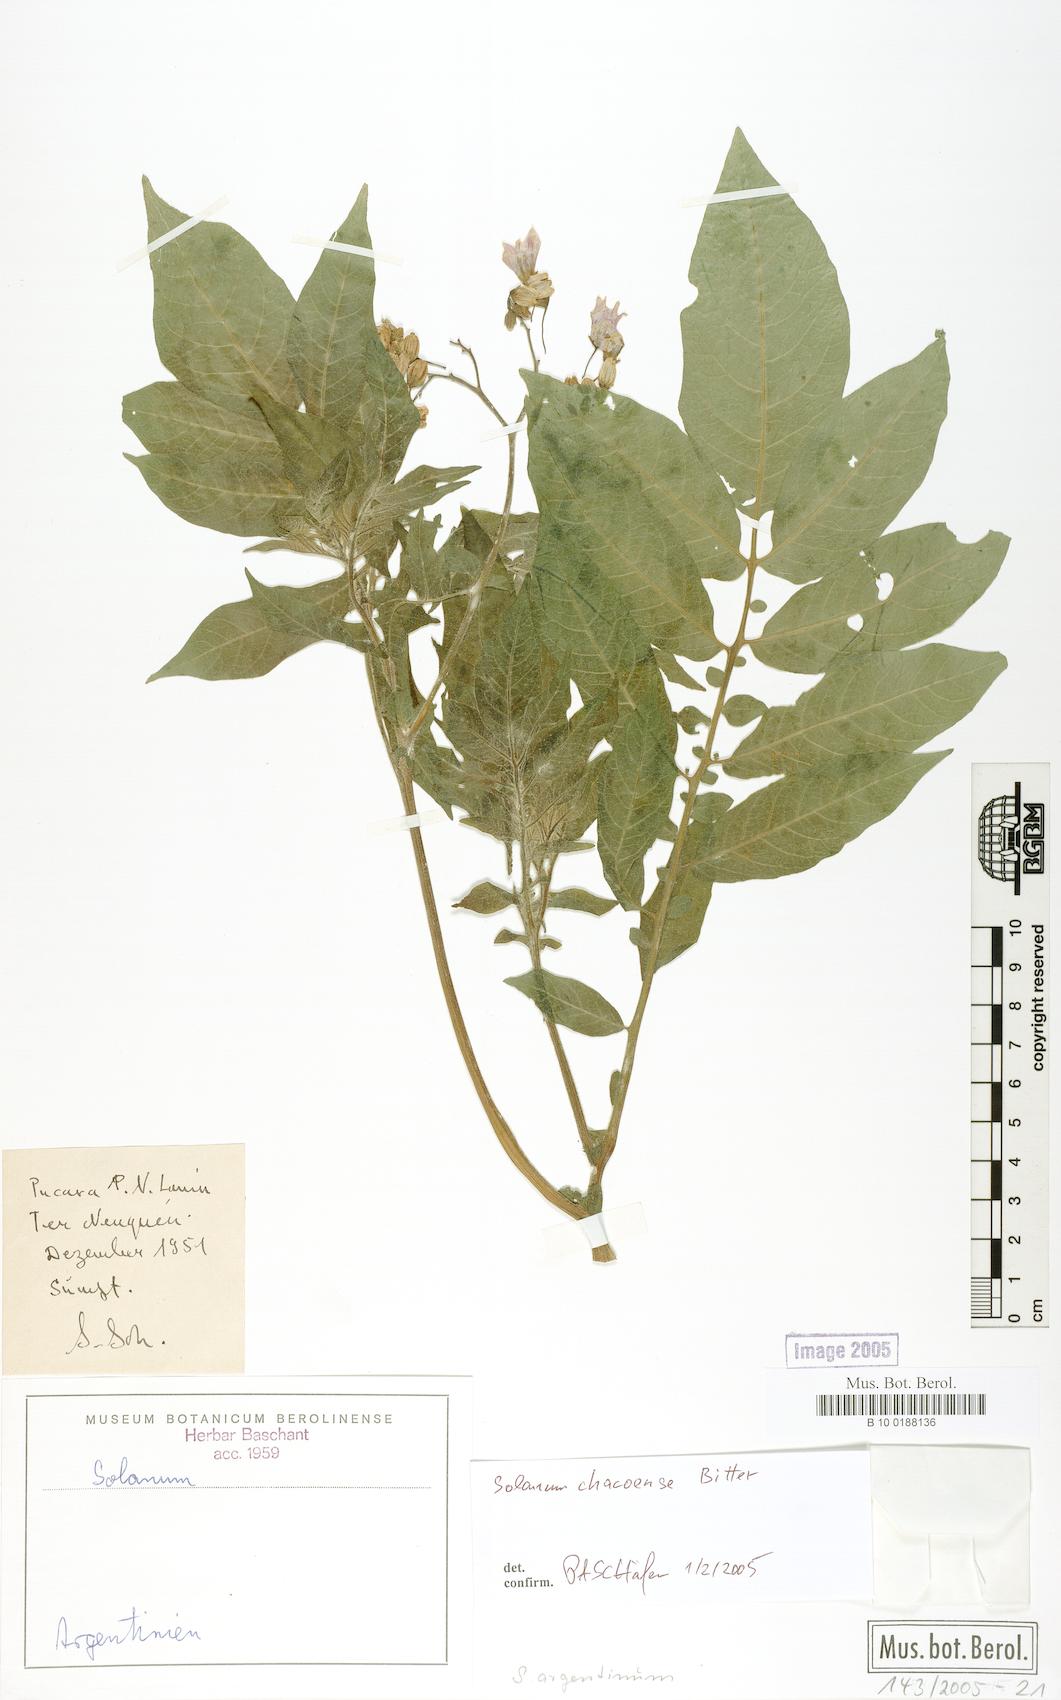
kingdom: Plantae
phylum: Tracheophyta
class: Magnoliopsida
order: Solanales
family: Solanaceae
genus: Solanum
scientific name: Solanum argentinum
